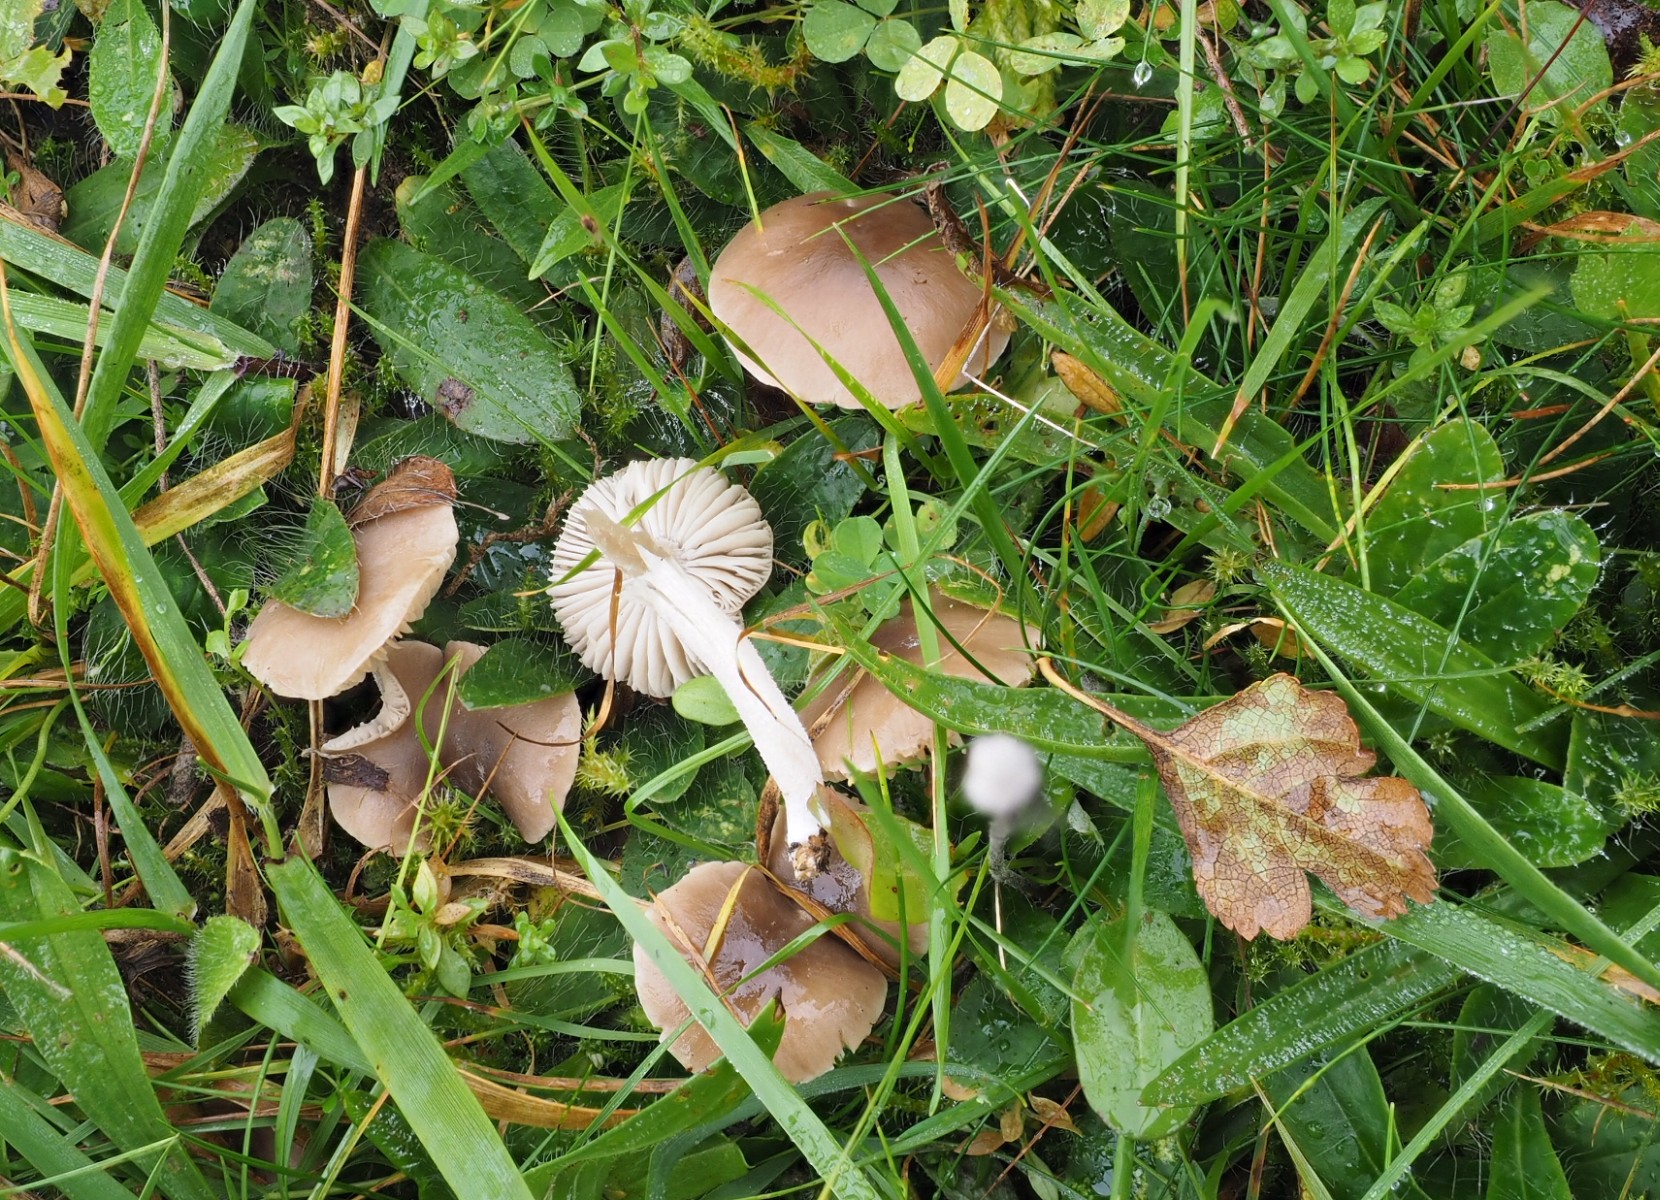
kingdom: Fungi
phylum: Basidiomycota
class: Agaricomycetes
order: Agaricales
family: Tricholomataceae
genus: Dermoloma
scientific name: Dermoloma cuneifolium
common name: eng-nonnehat
